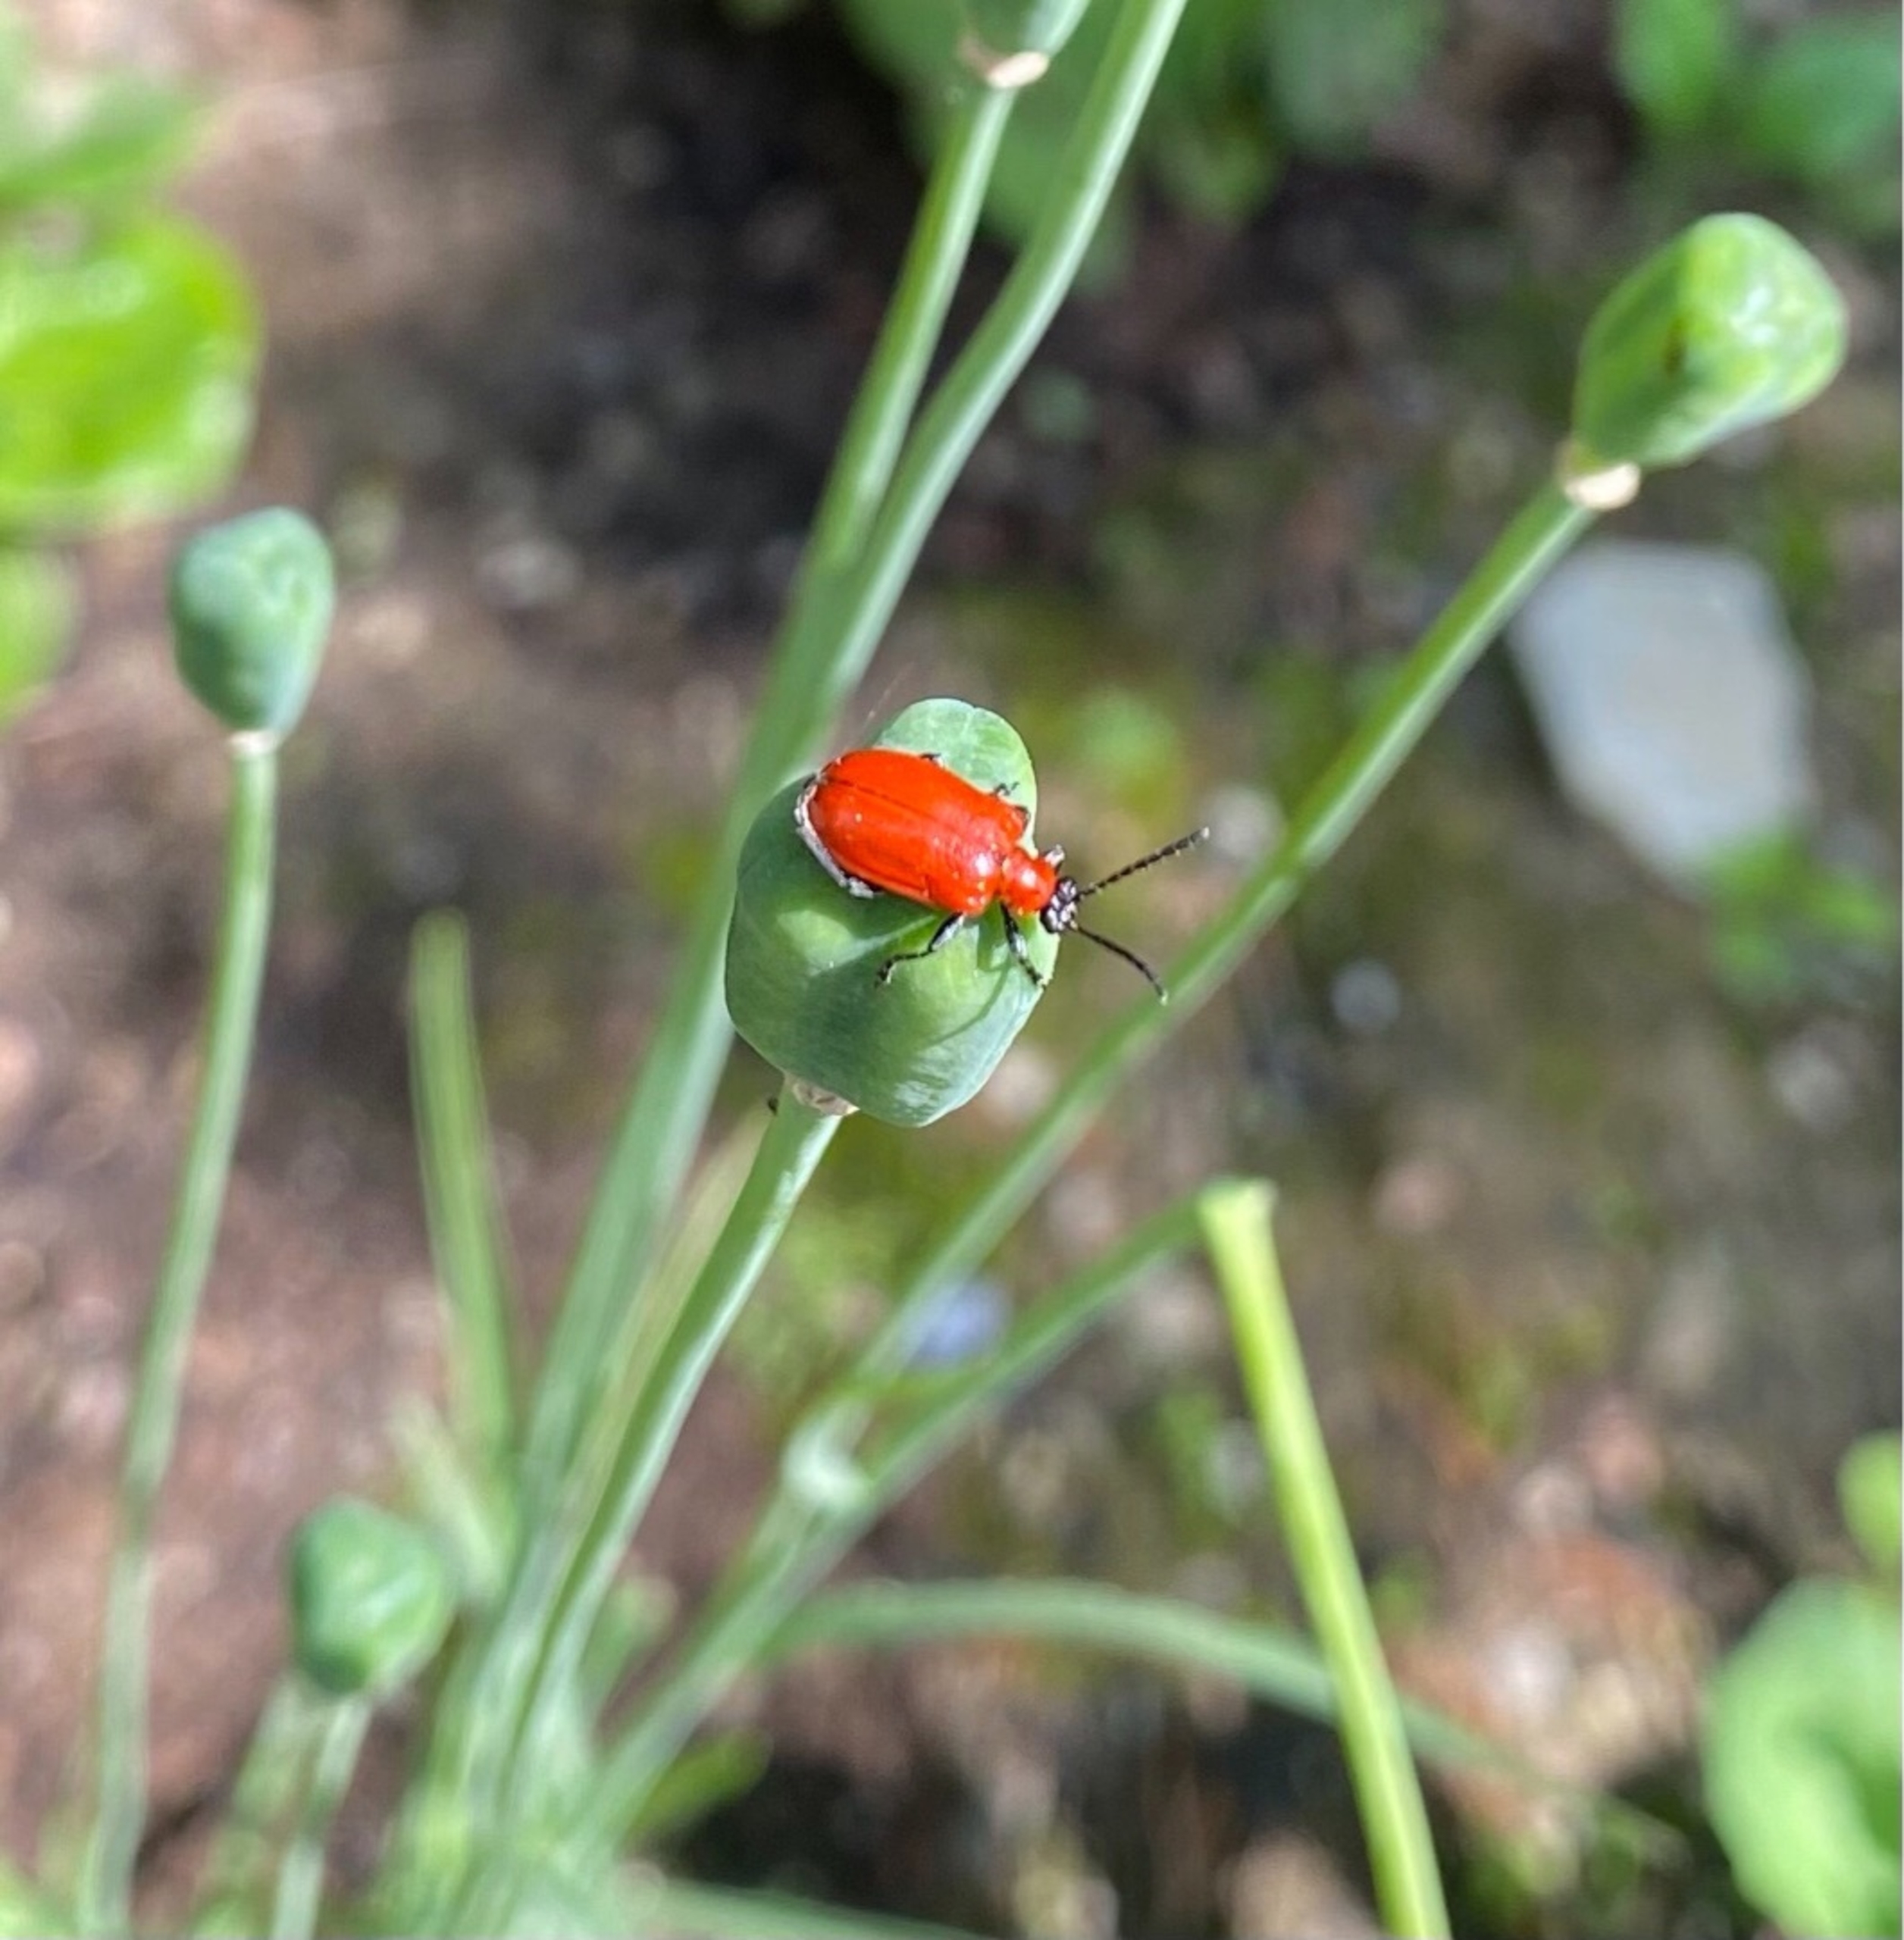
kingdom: Animalia
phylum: Arthropoda
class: Insecta
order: Coleoptera
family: Chrysomelidae
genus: Lilioceris
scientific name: Lilioceris lilii
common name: Liljebille
